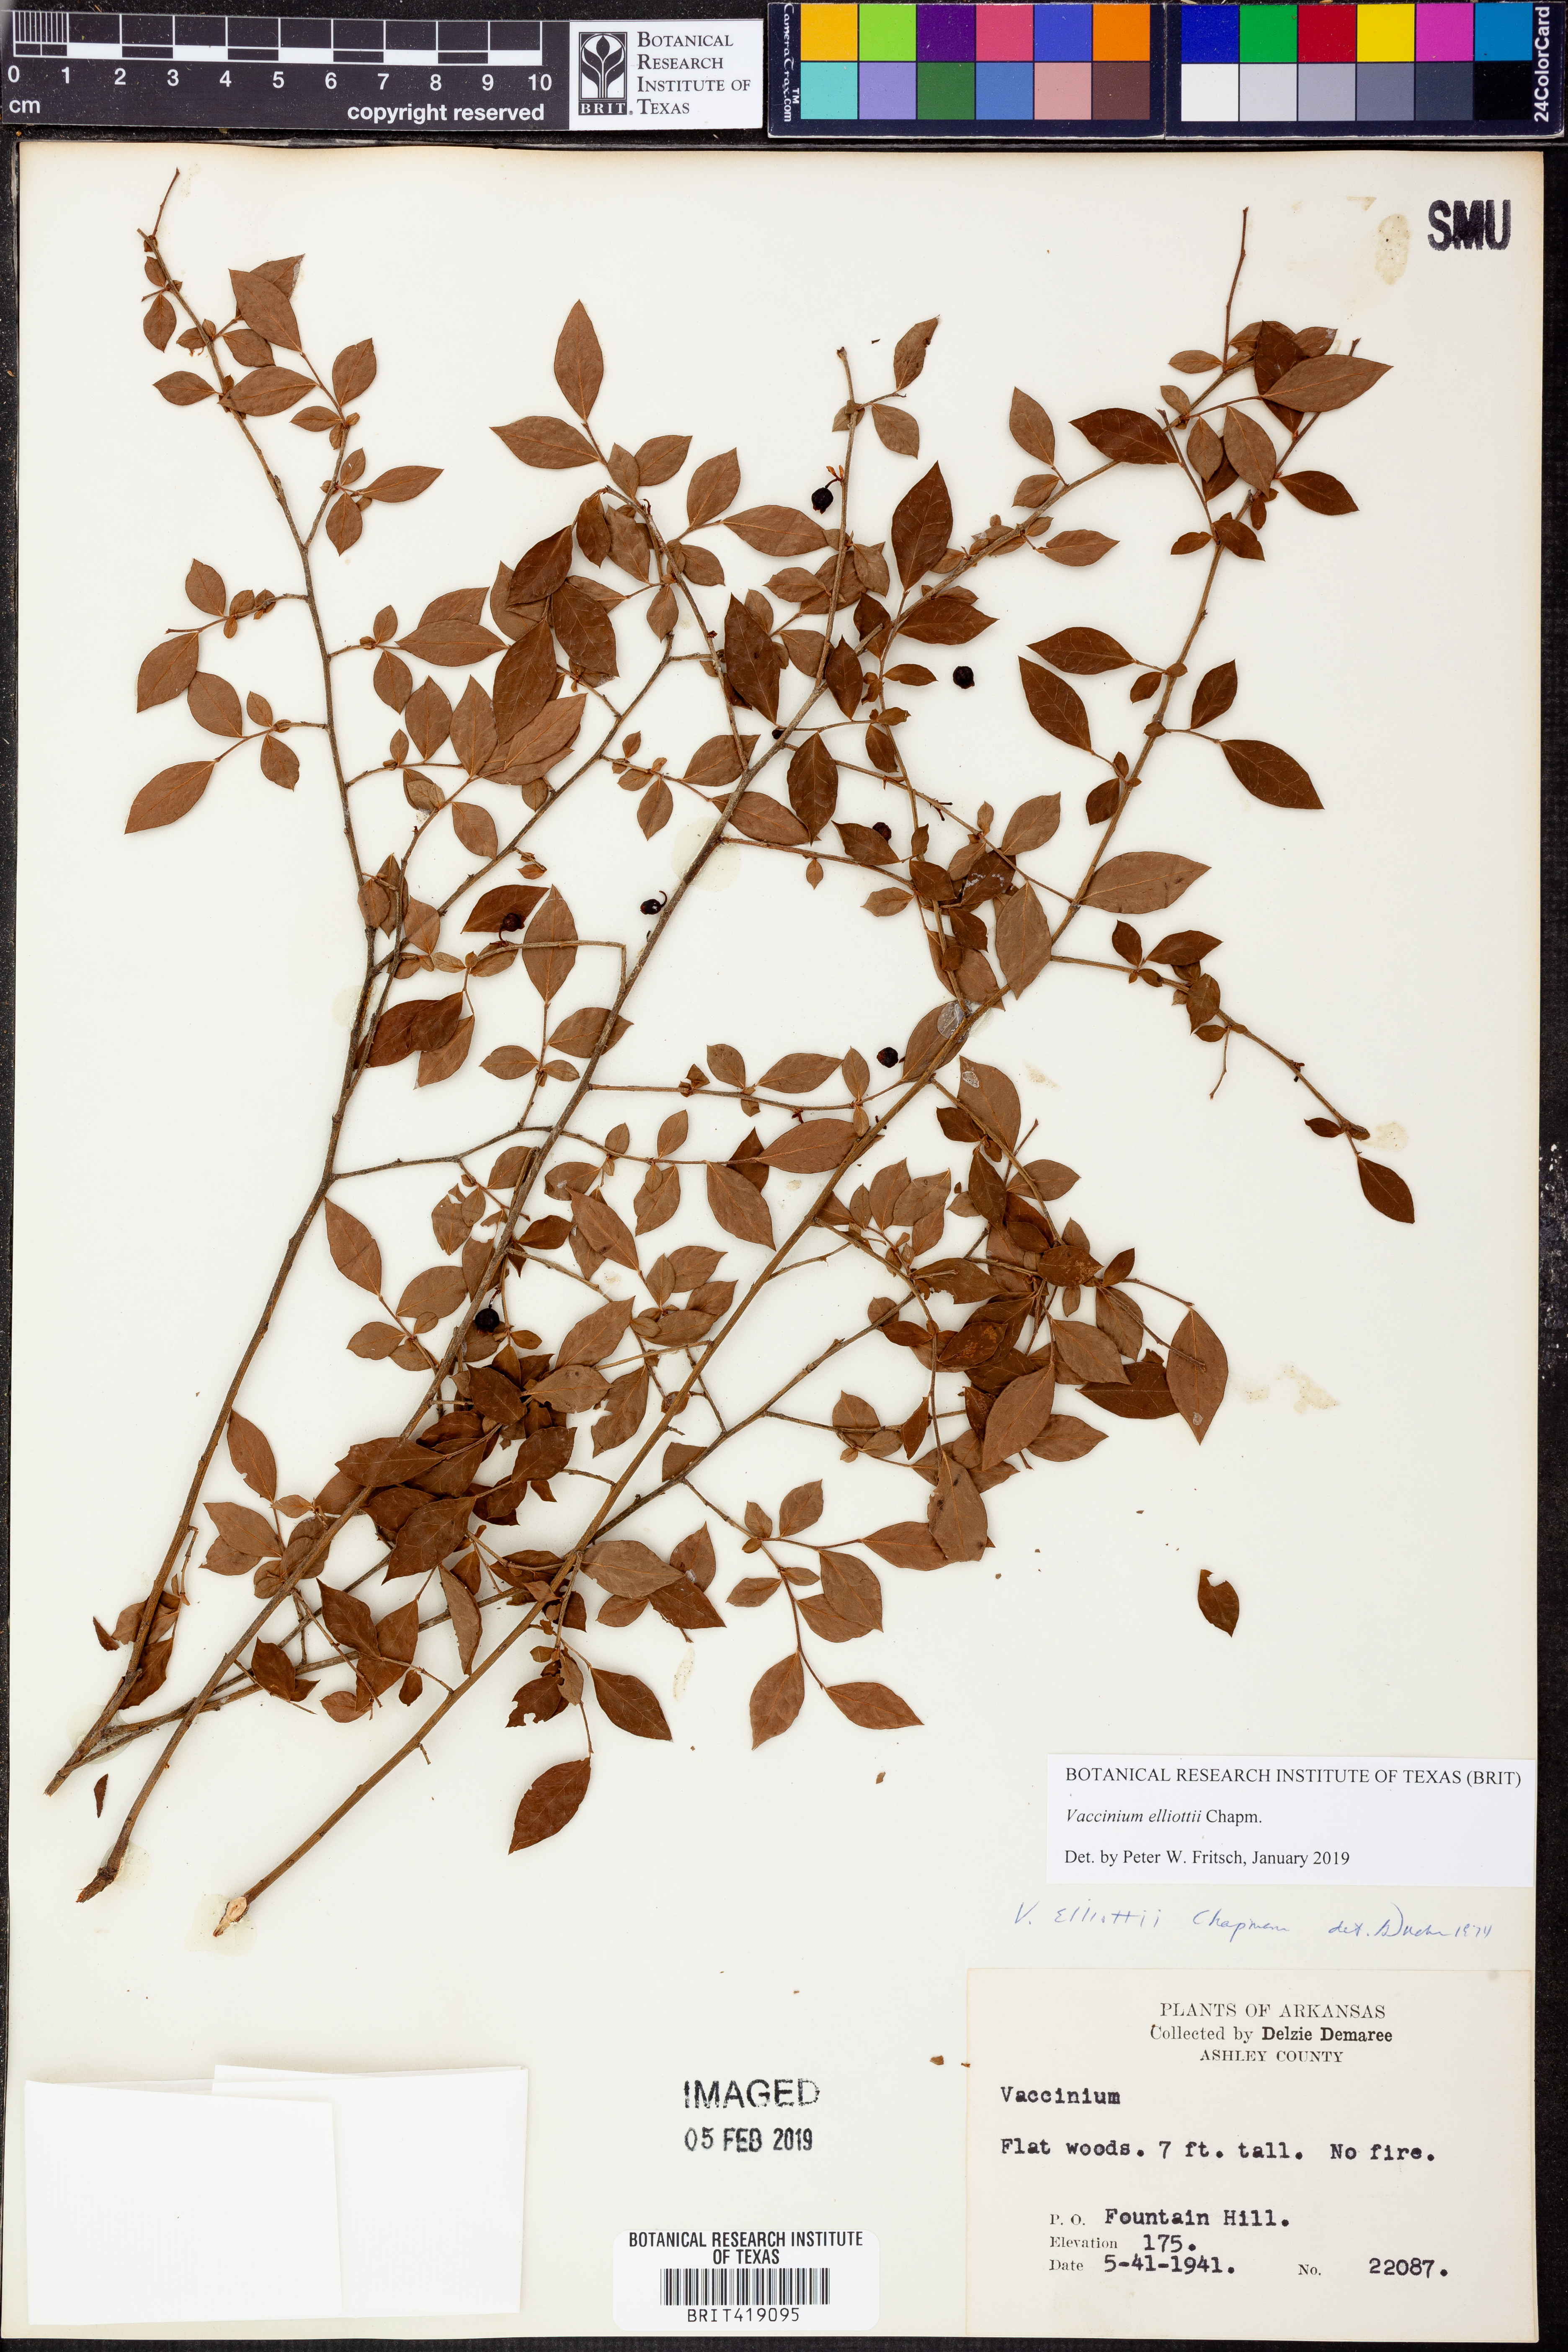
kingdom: Plantae
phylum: Tracheophyta
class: Magnoliopsida
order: Ericales
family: Ericaceae
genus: Vaccinium
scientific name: Vaccinium corymbosum
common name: Blueberry
